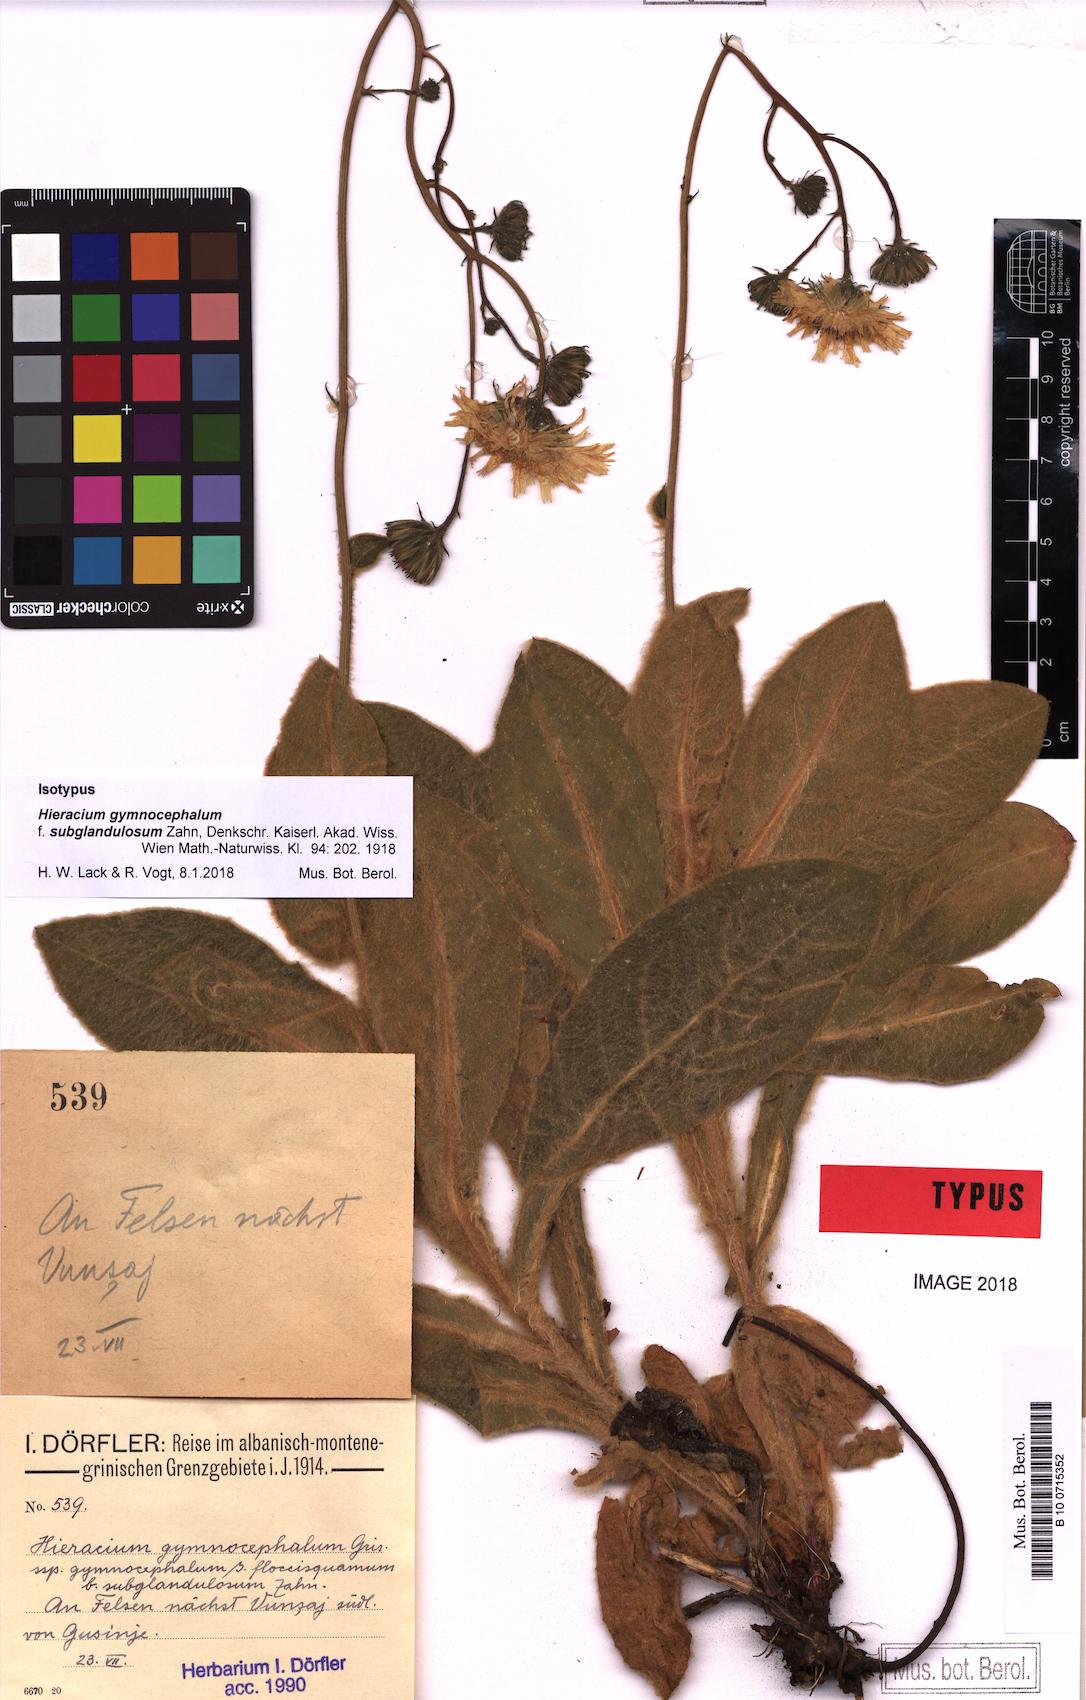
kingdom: Plantae
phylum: Tracheophyta
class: Magnoliopsida
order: Asterales
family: Asteraceae
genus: Hieracium
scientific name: Hieracium gymnocephalum
